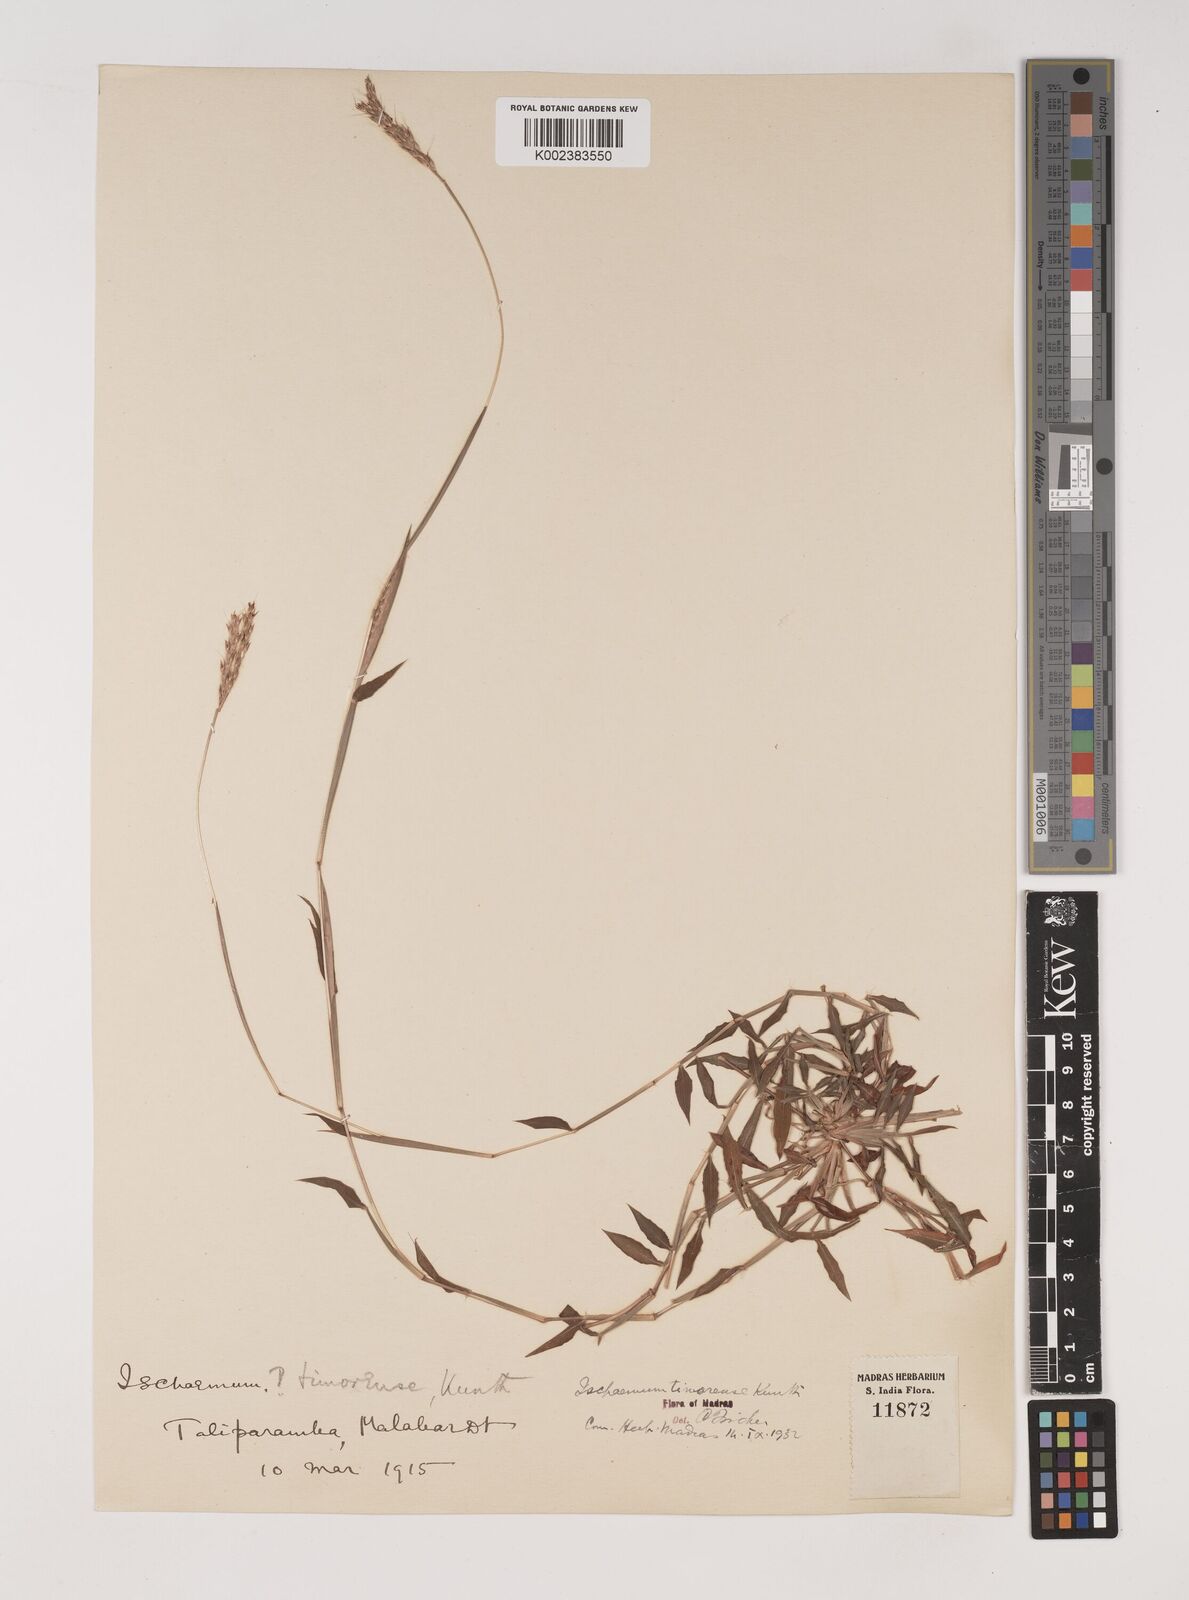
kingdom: Plantae
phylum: Tracheophyta
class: Liliopsida
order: Poales
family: Poaceae
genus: Ischaemum
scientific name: Ischaemum timorense
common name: Stalkleaf murainagrass
